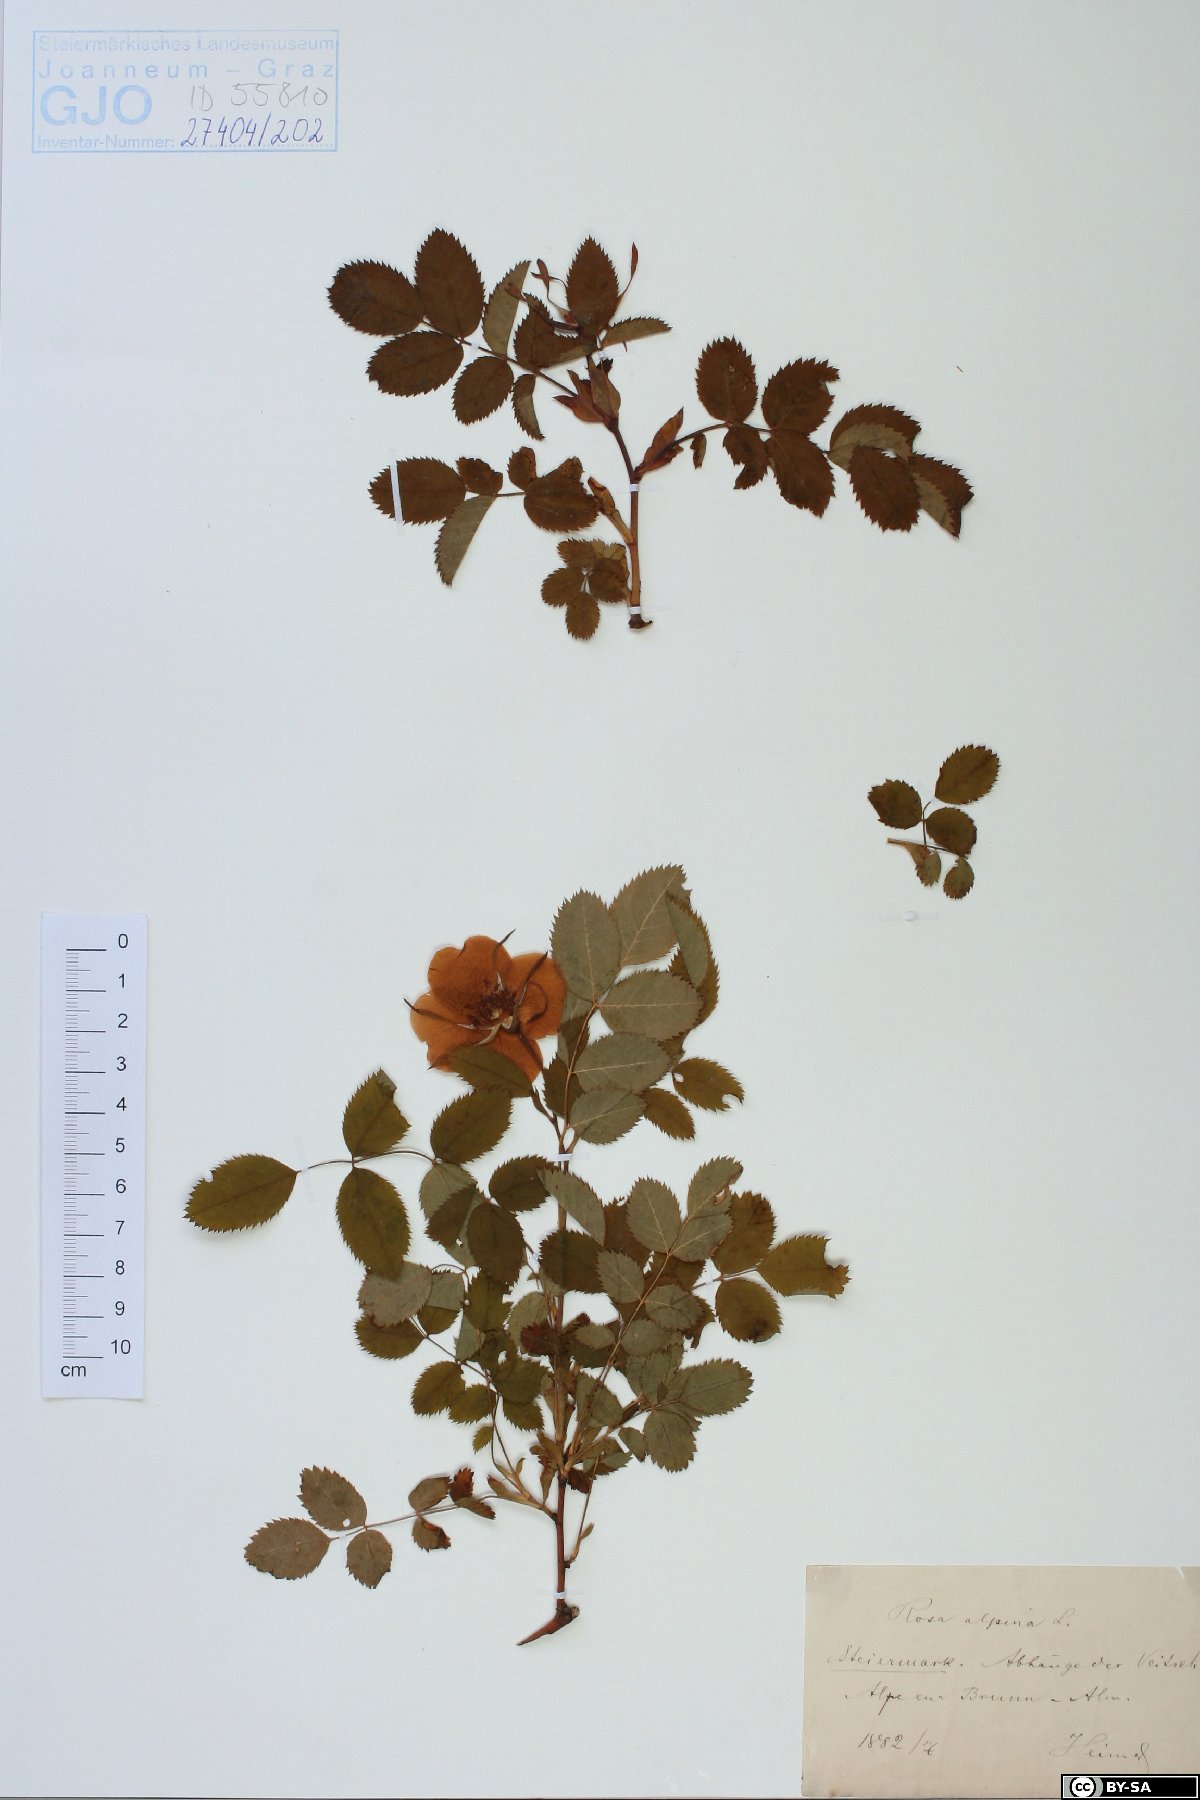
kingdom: Plantae
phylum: Tracheophyta
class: Magnoliopsida
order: Rosales
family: Rosaceae
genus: Rosa
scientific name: Rosa pendulina
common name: Alpine rose
